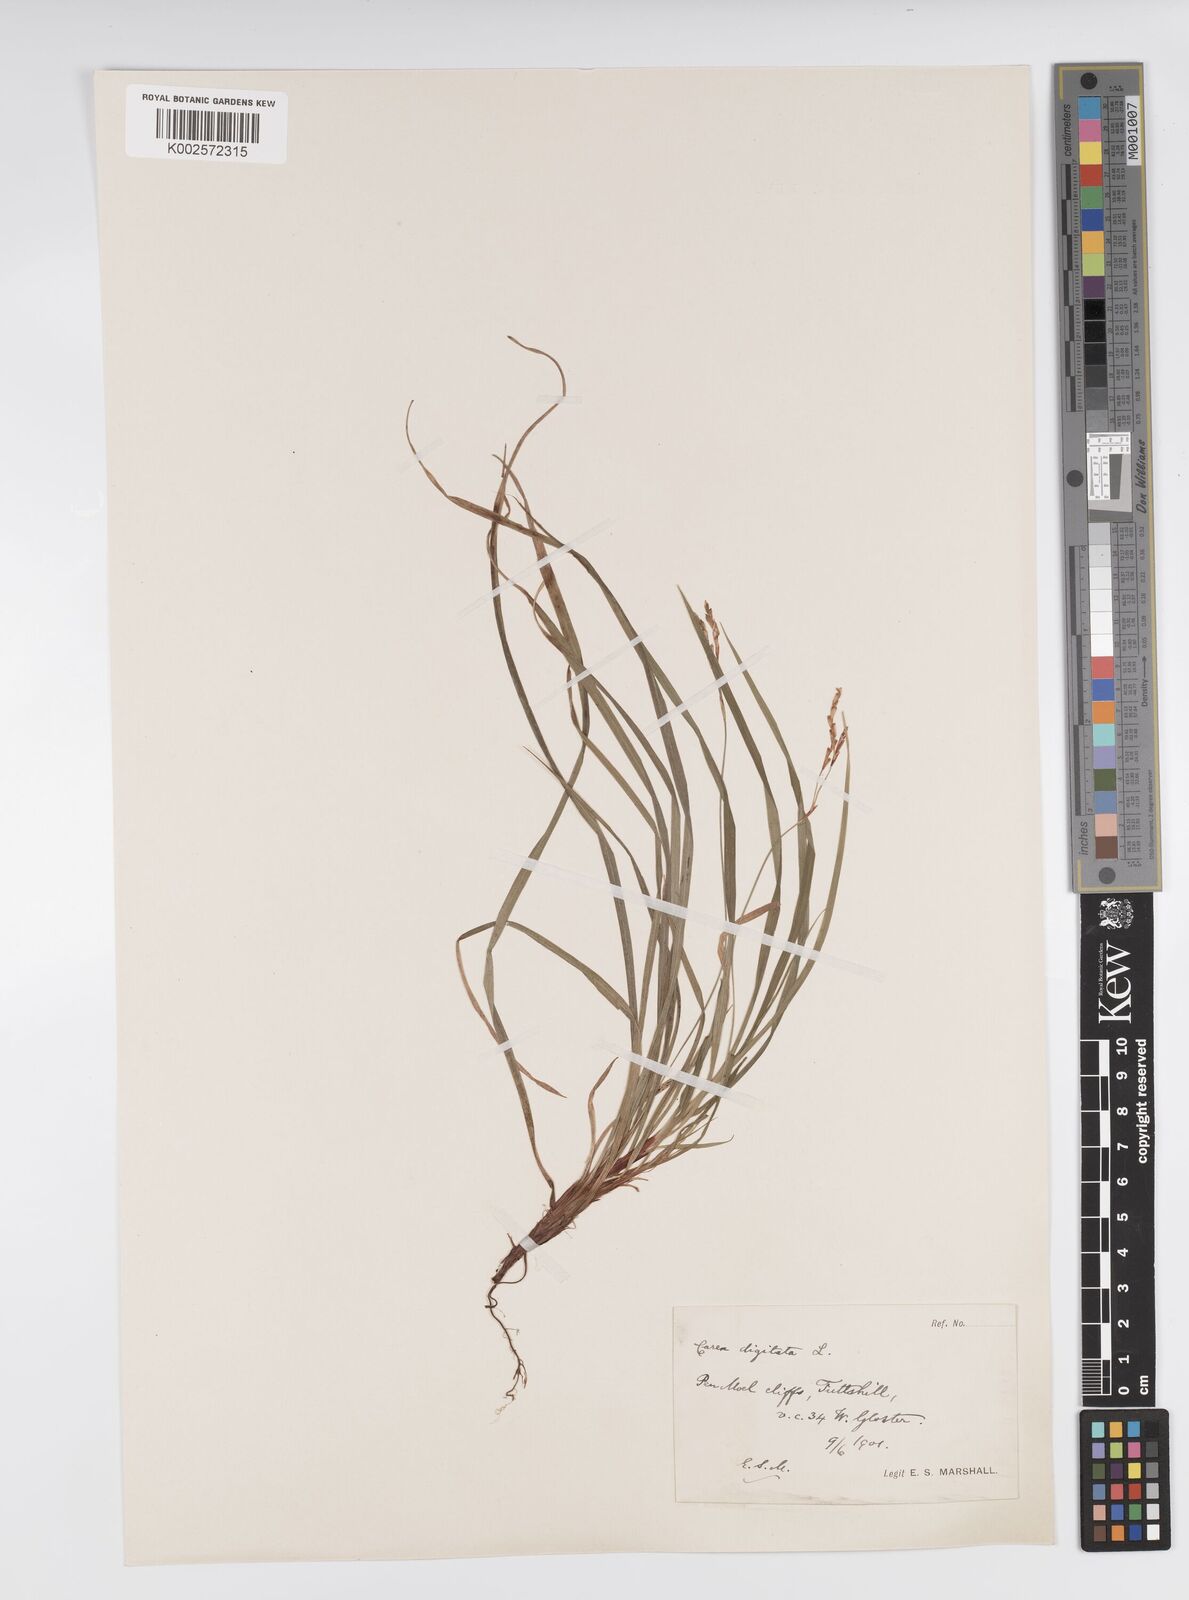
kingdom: Plantae
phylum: Tracheophyta
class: Liliopsida
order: Poales
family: Cyperaceae
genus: Carex
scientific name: Carex digitata
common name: Fingered sedge
